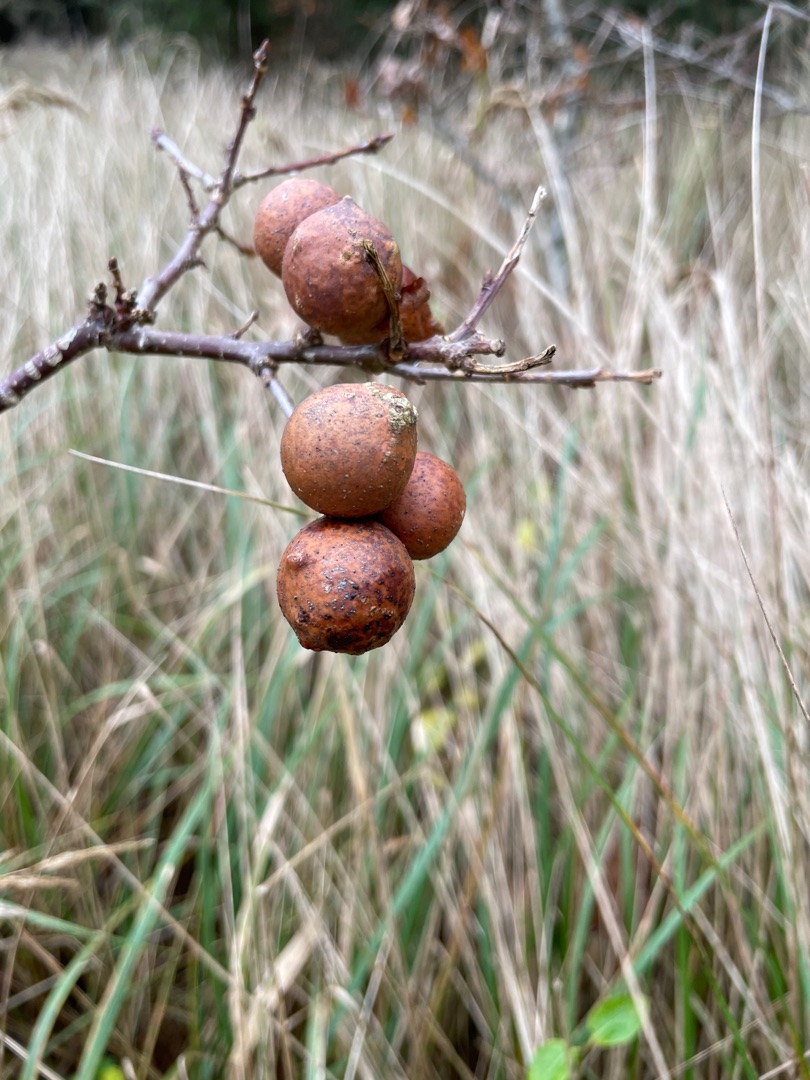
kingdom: Animalia
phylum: Arthropoda
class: Insecta
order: Hymenoptera
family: Cynipidae
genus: Andricus
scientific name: Andricus kollari
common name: Marmorkugle-galhveps
